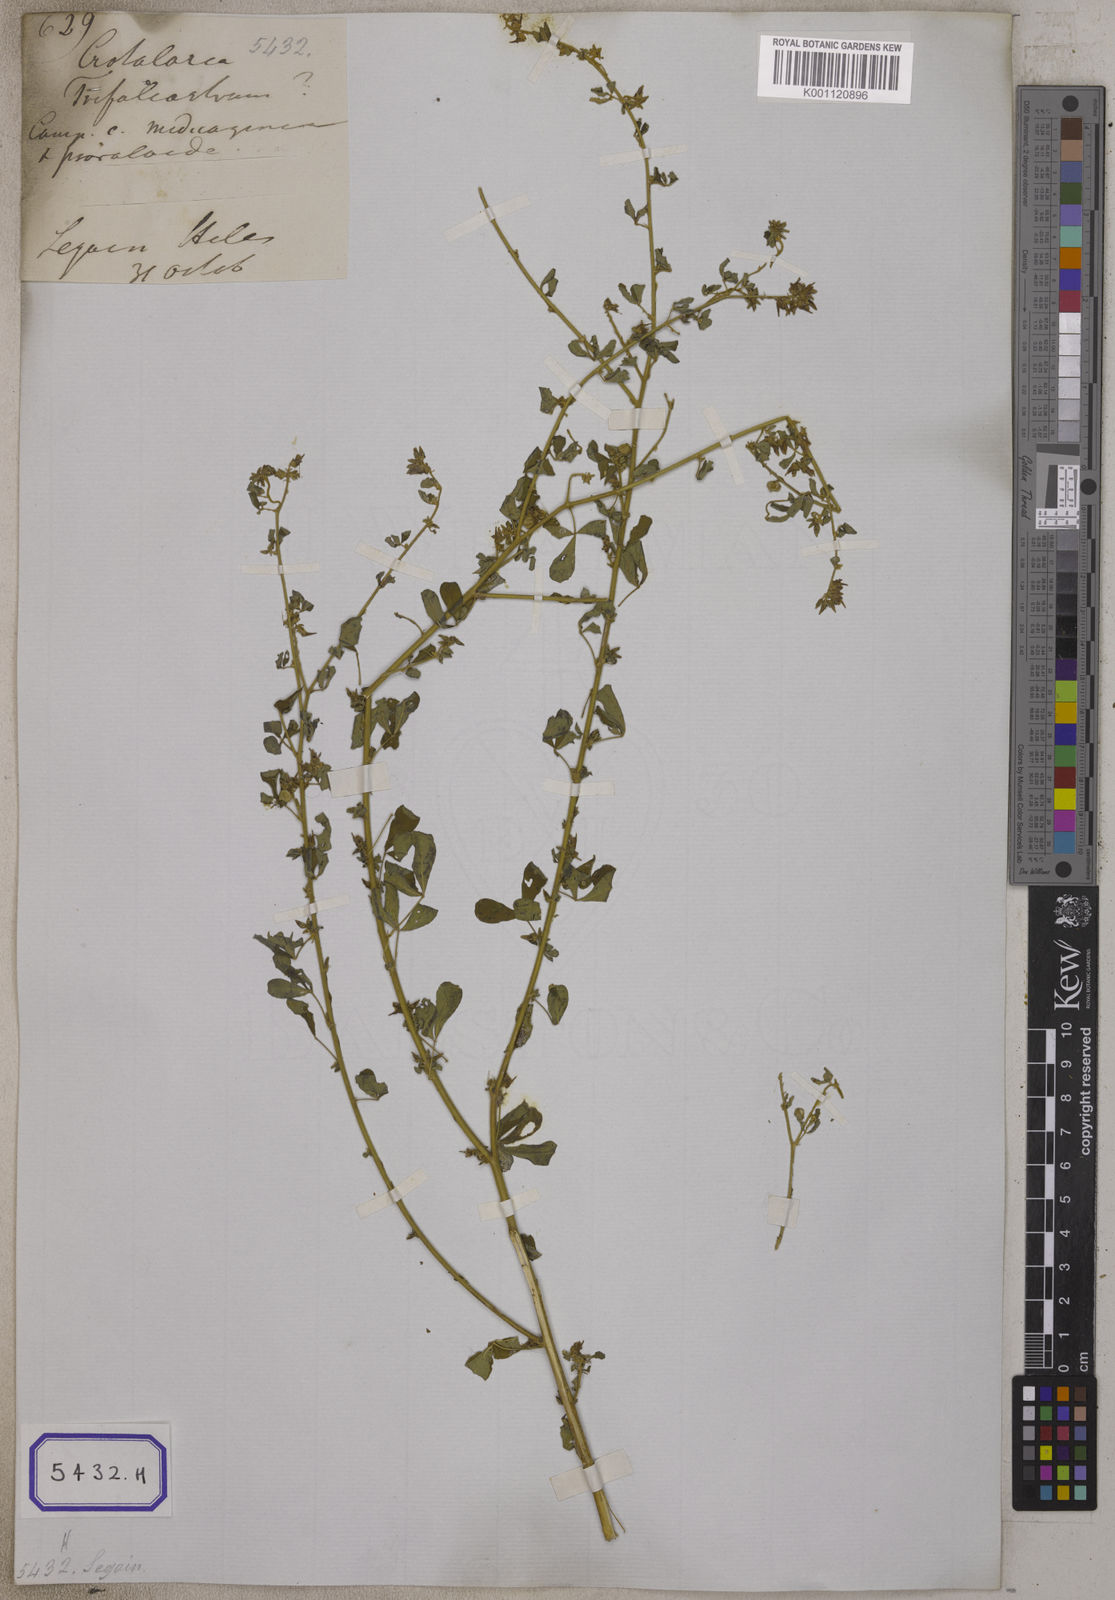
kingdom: Plantae
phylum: Tracheophyta
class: Magnoliopsida
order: Fabales
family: Fabaceae
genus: Crotalaria
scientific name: Crotalaria
